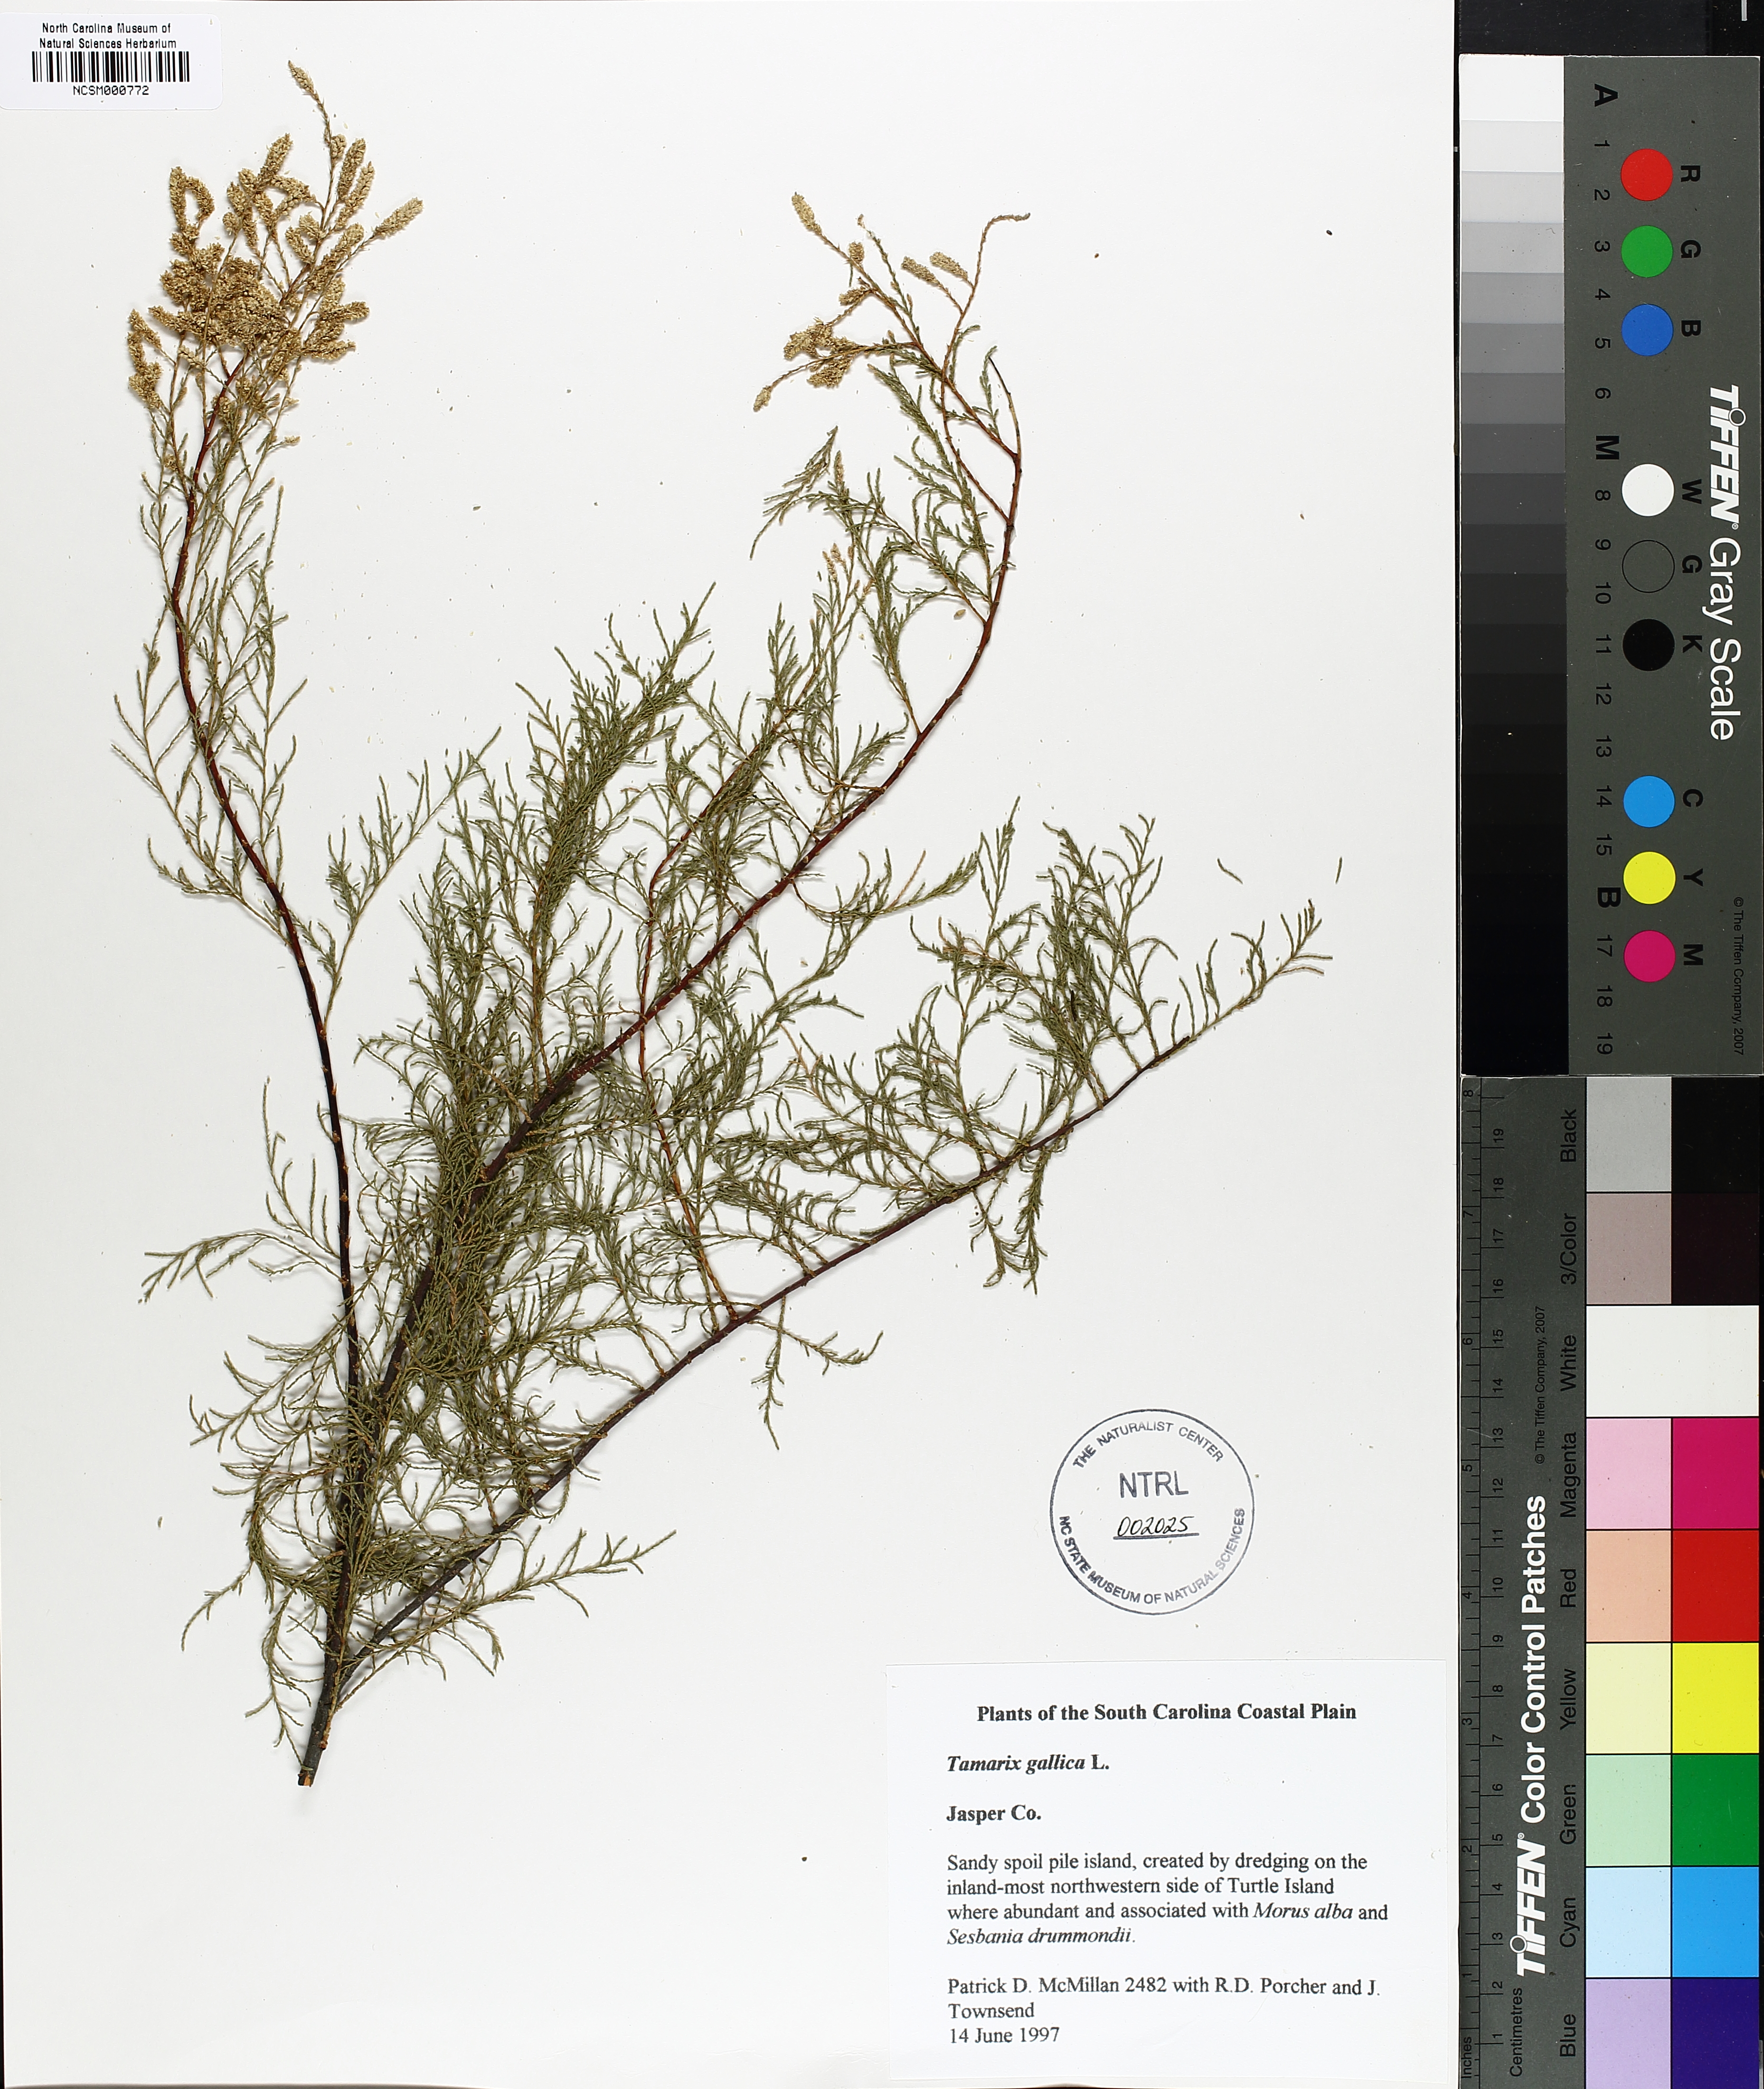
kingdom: Plantae
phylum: Tracheophyta
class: Magnoliopsida
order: Caryophyllales
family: Tamaricaceae
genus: Tamarix
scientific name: Tamarix gallica
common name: Tamarisk
